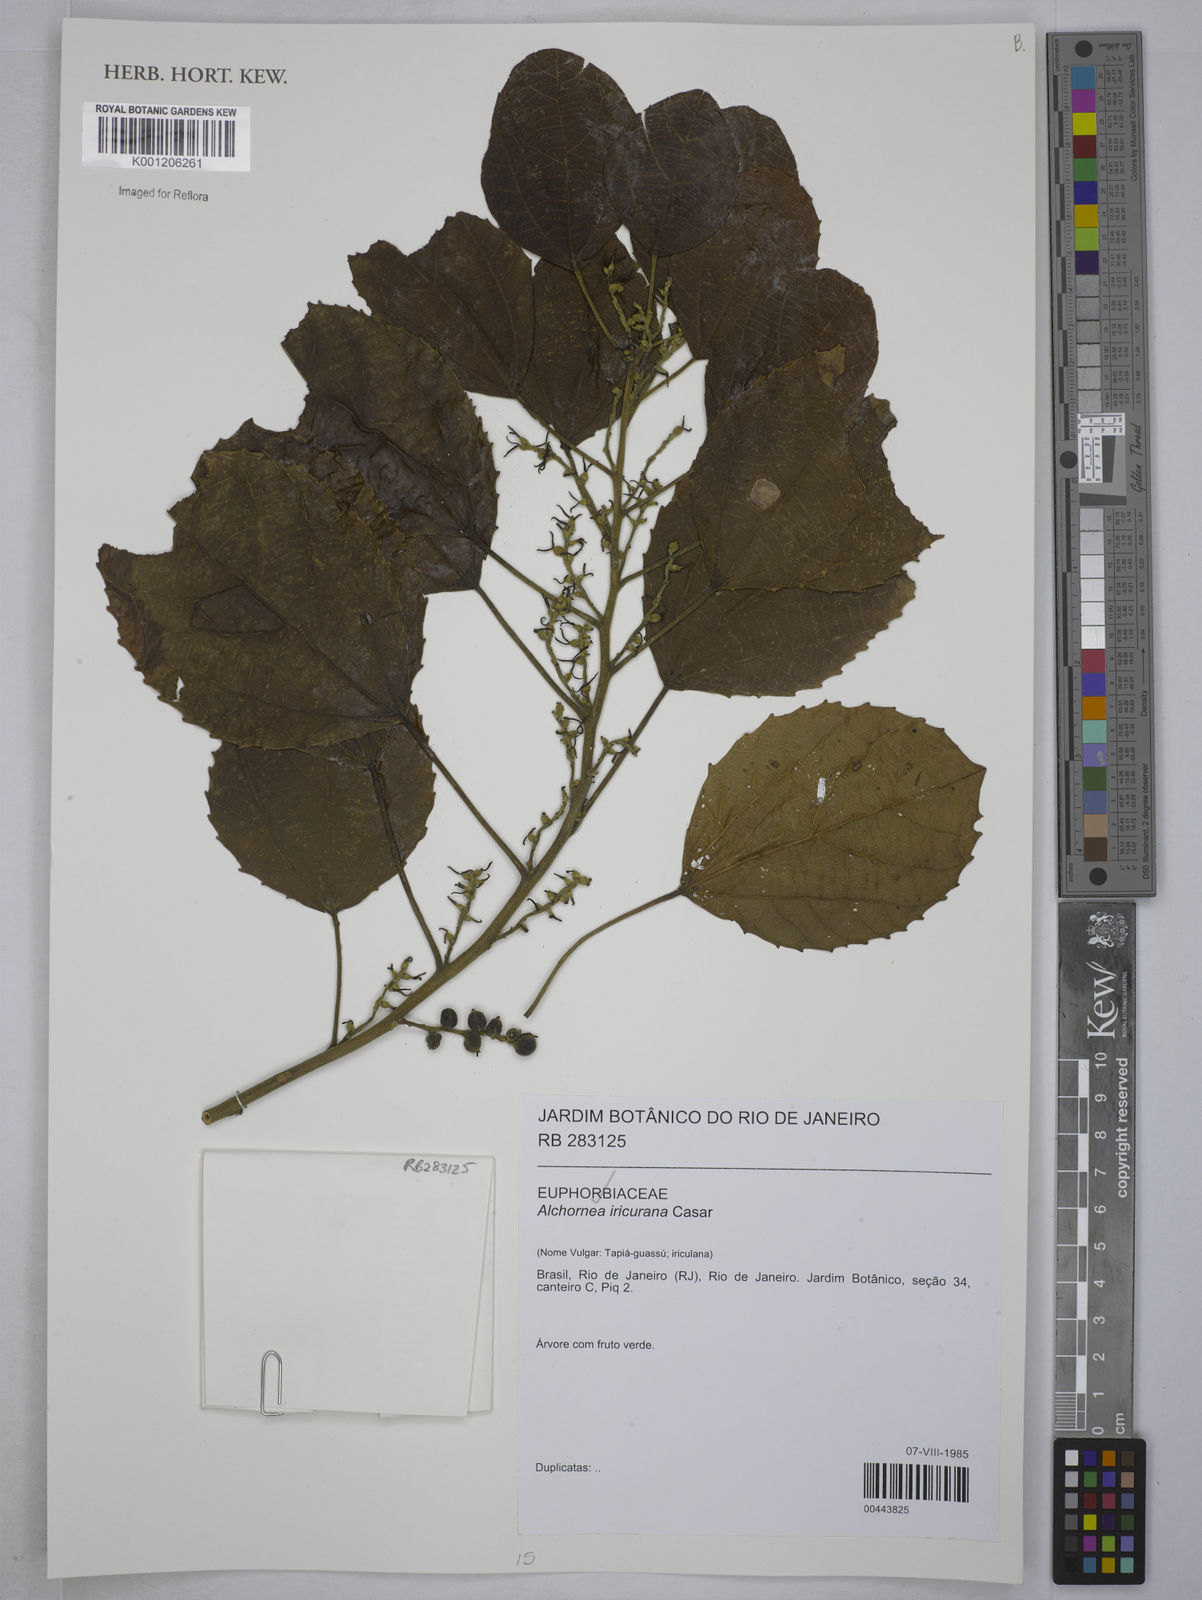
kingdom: Plantae
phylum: Tracheophyta
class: Magnoliopsida
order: Malpighiales
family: Euphorbiaceae
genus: Alchornea
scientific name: Alchornea glandulosa
